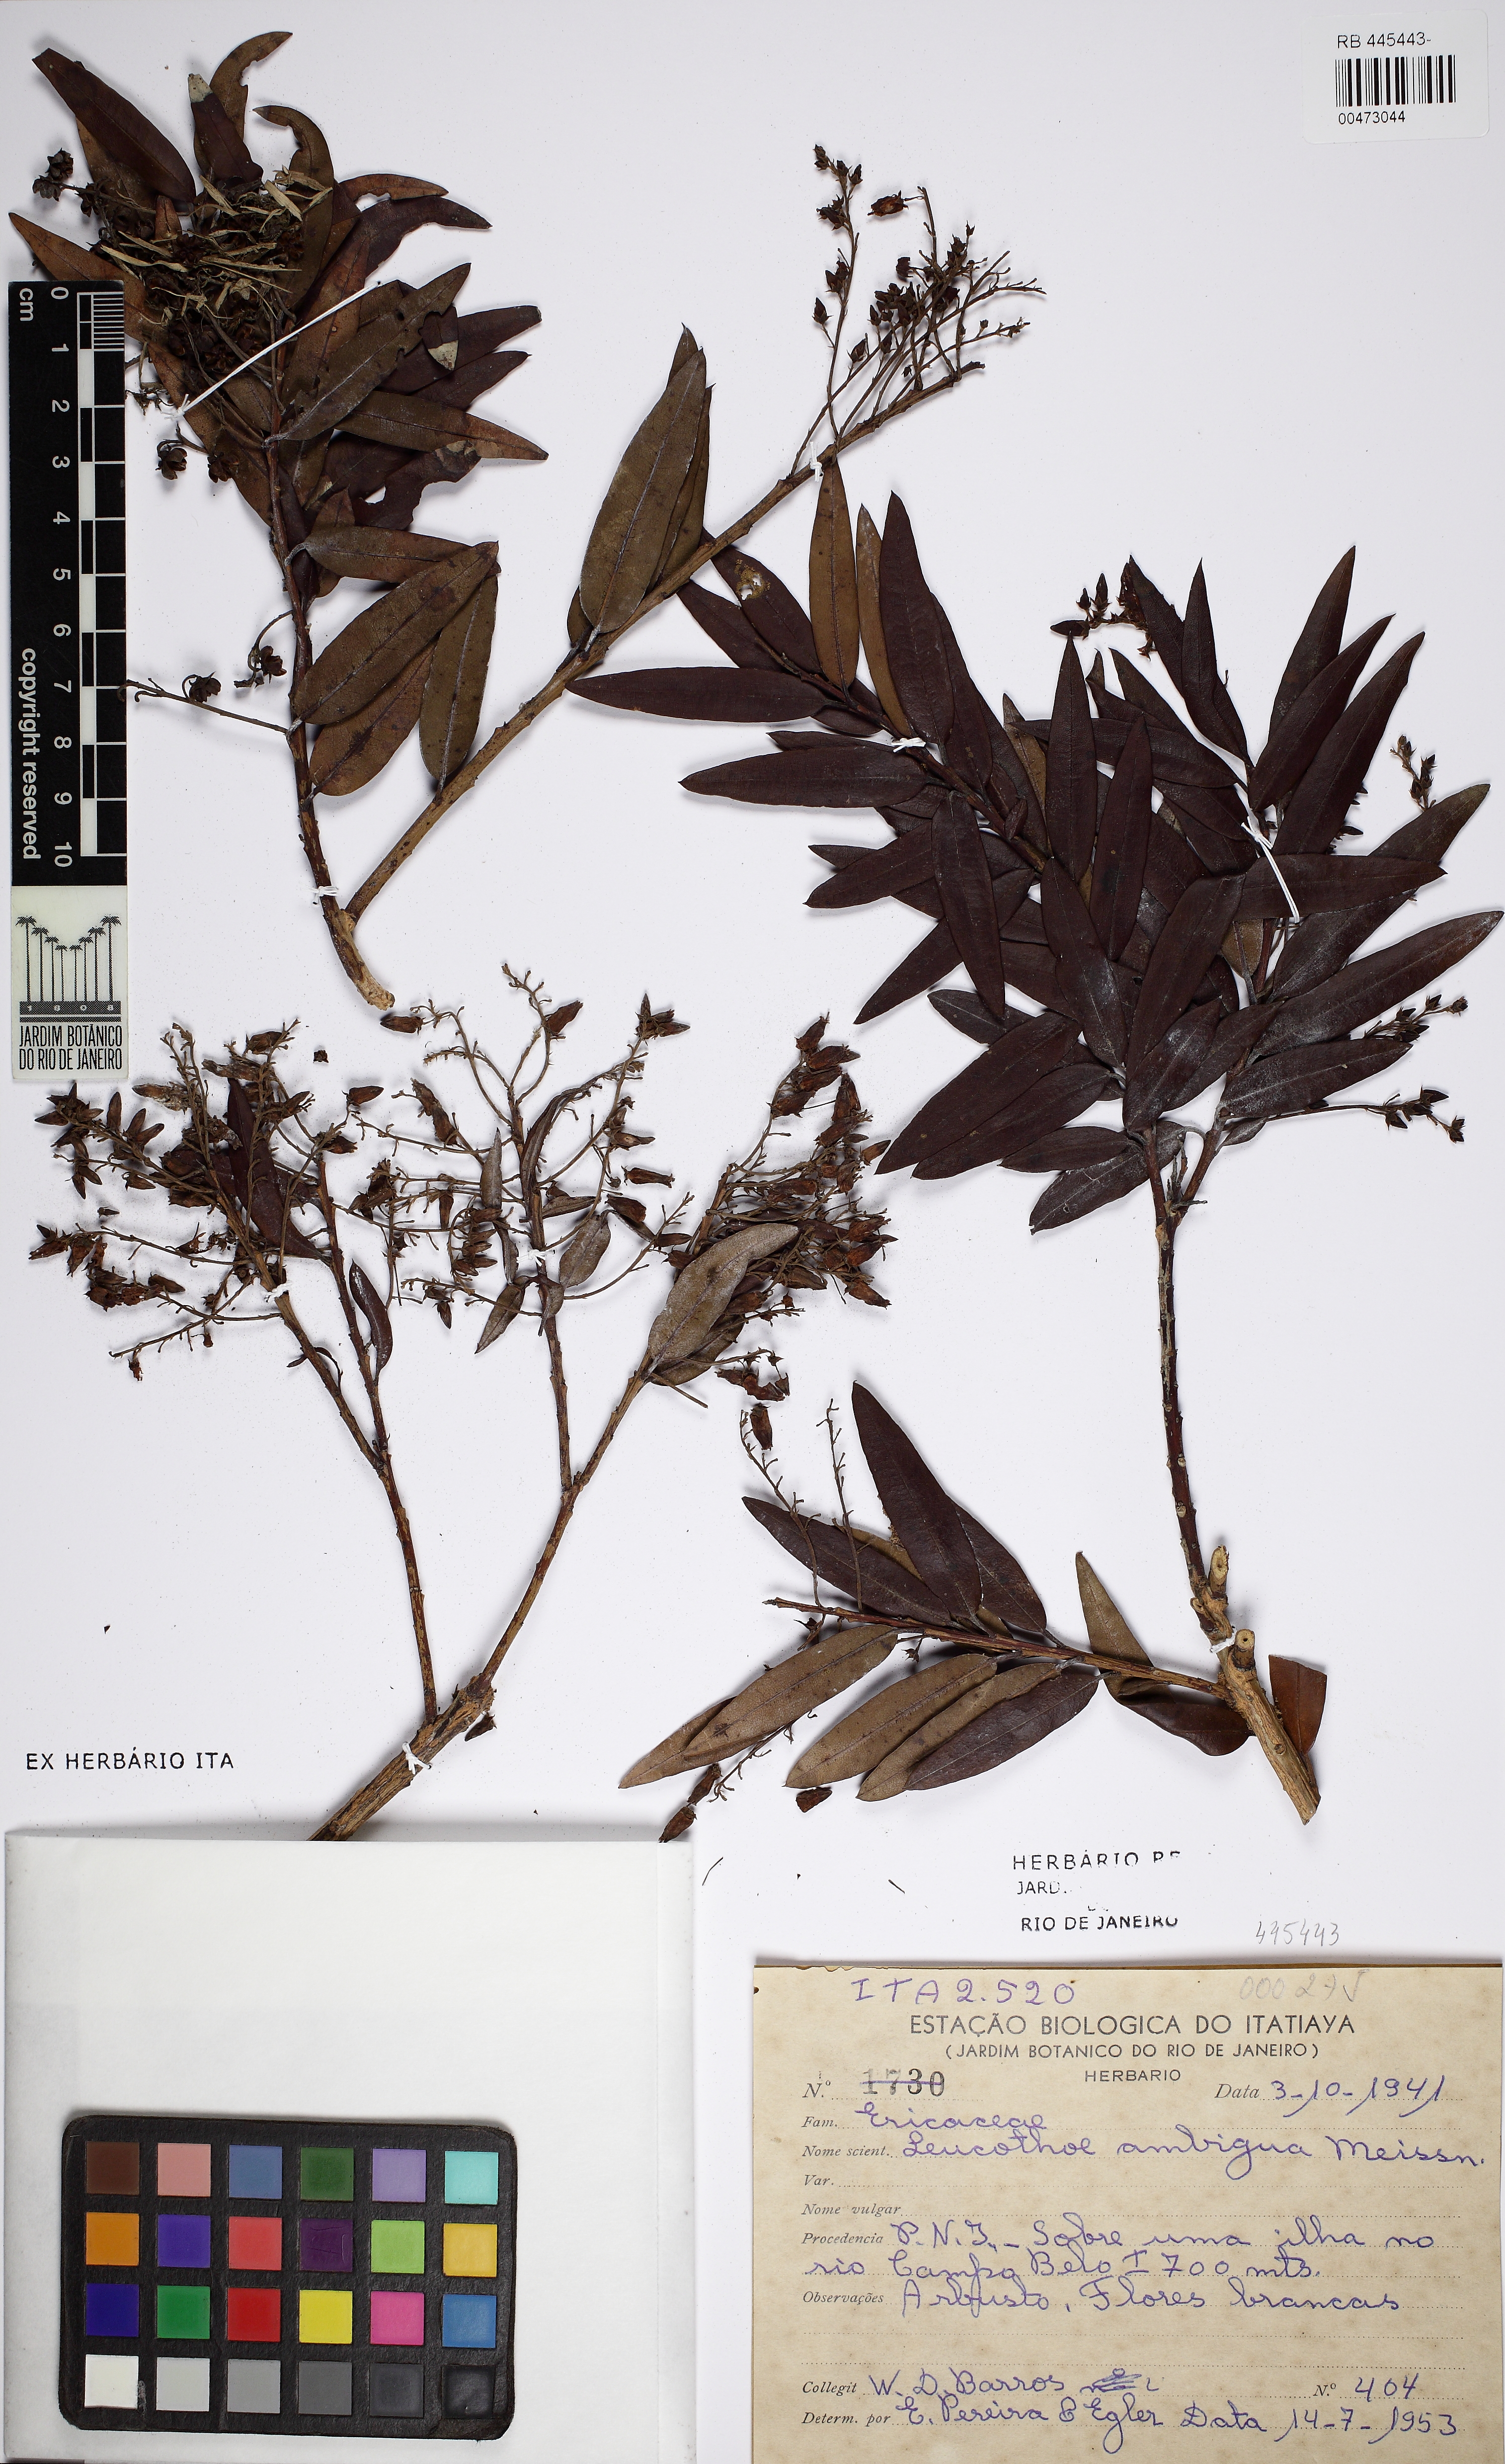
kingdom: Plantae
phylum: Tracheophyta
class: Magnoliopsida
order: Ericales
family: Ericaceae
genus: Agarista
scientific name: Agarista oleifolia
